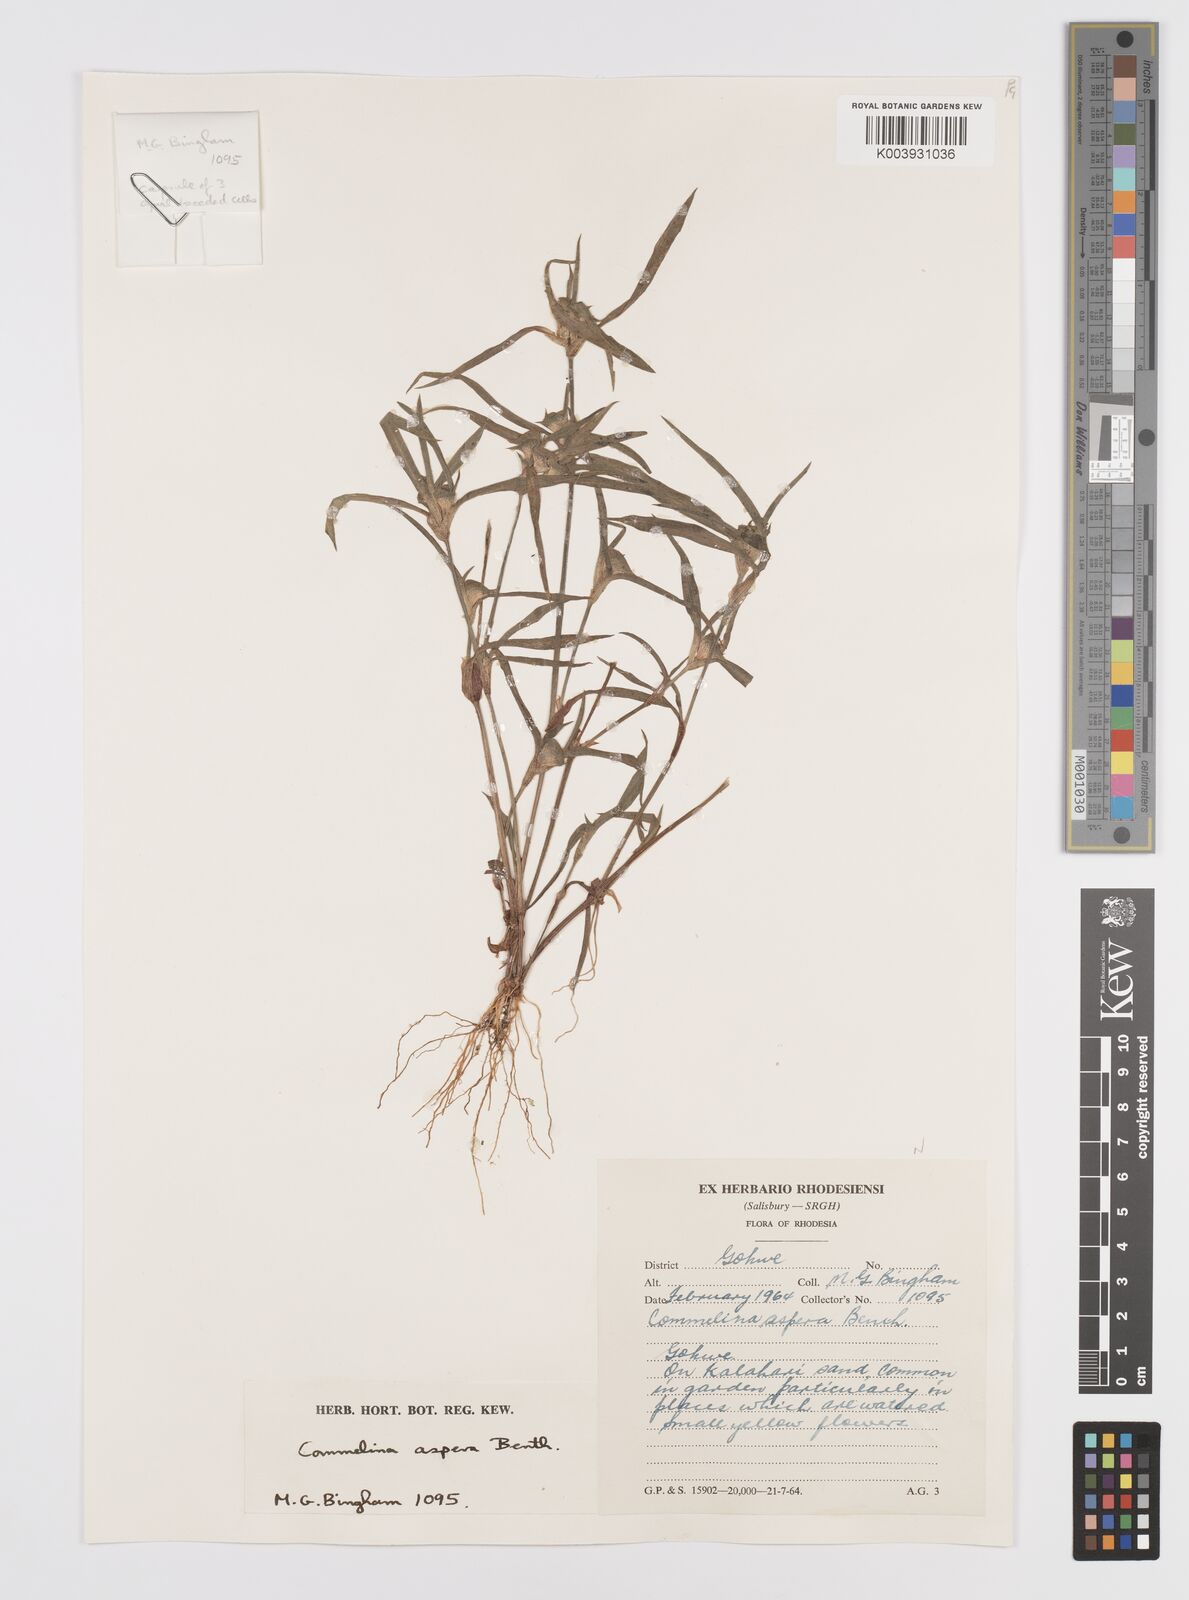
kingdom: Plantae
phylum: Tracheophyta
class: Liliopsida
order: Commelinales
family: Commelinaceae
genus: Commelina
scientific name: Commelina aspera
